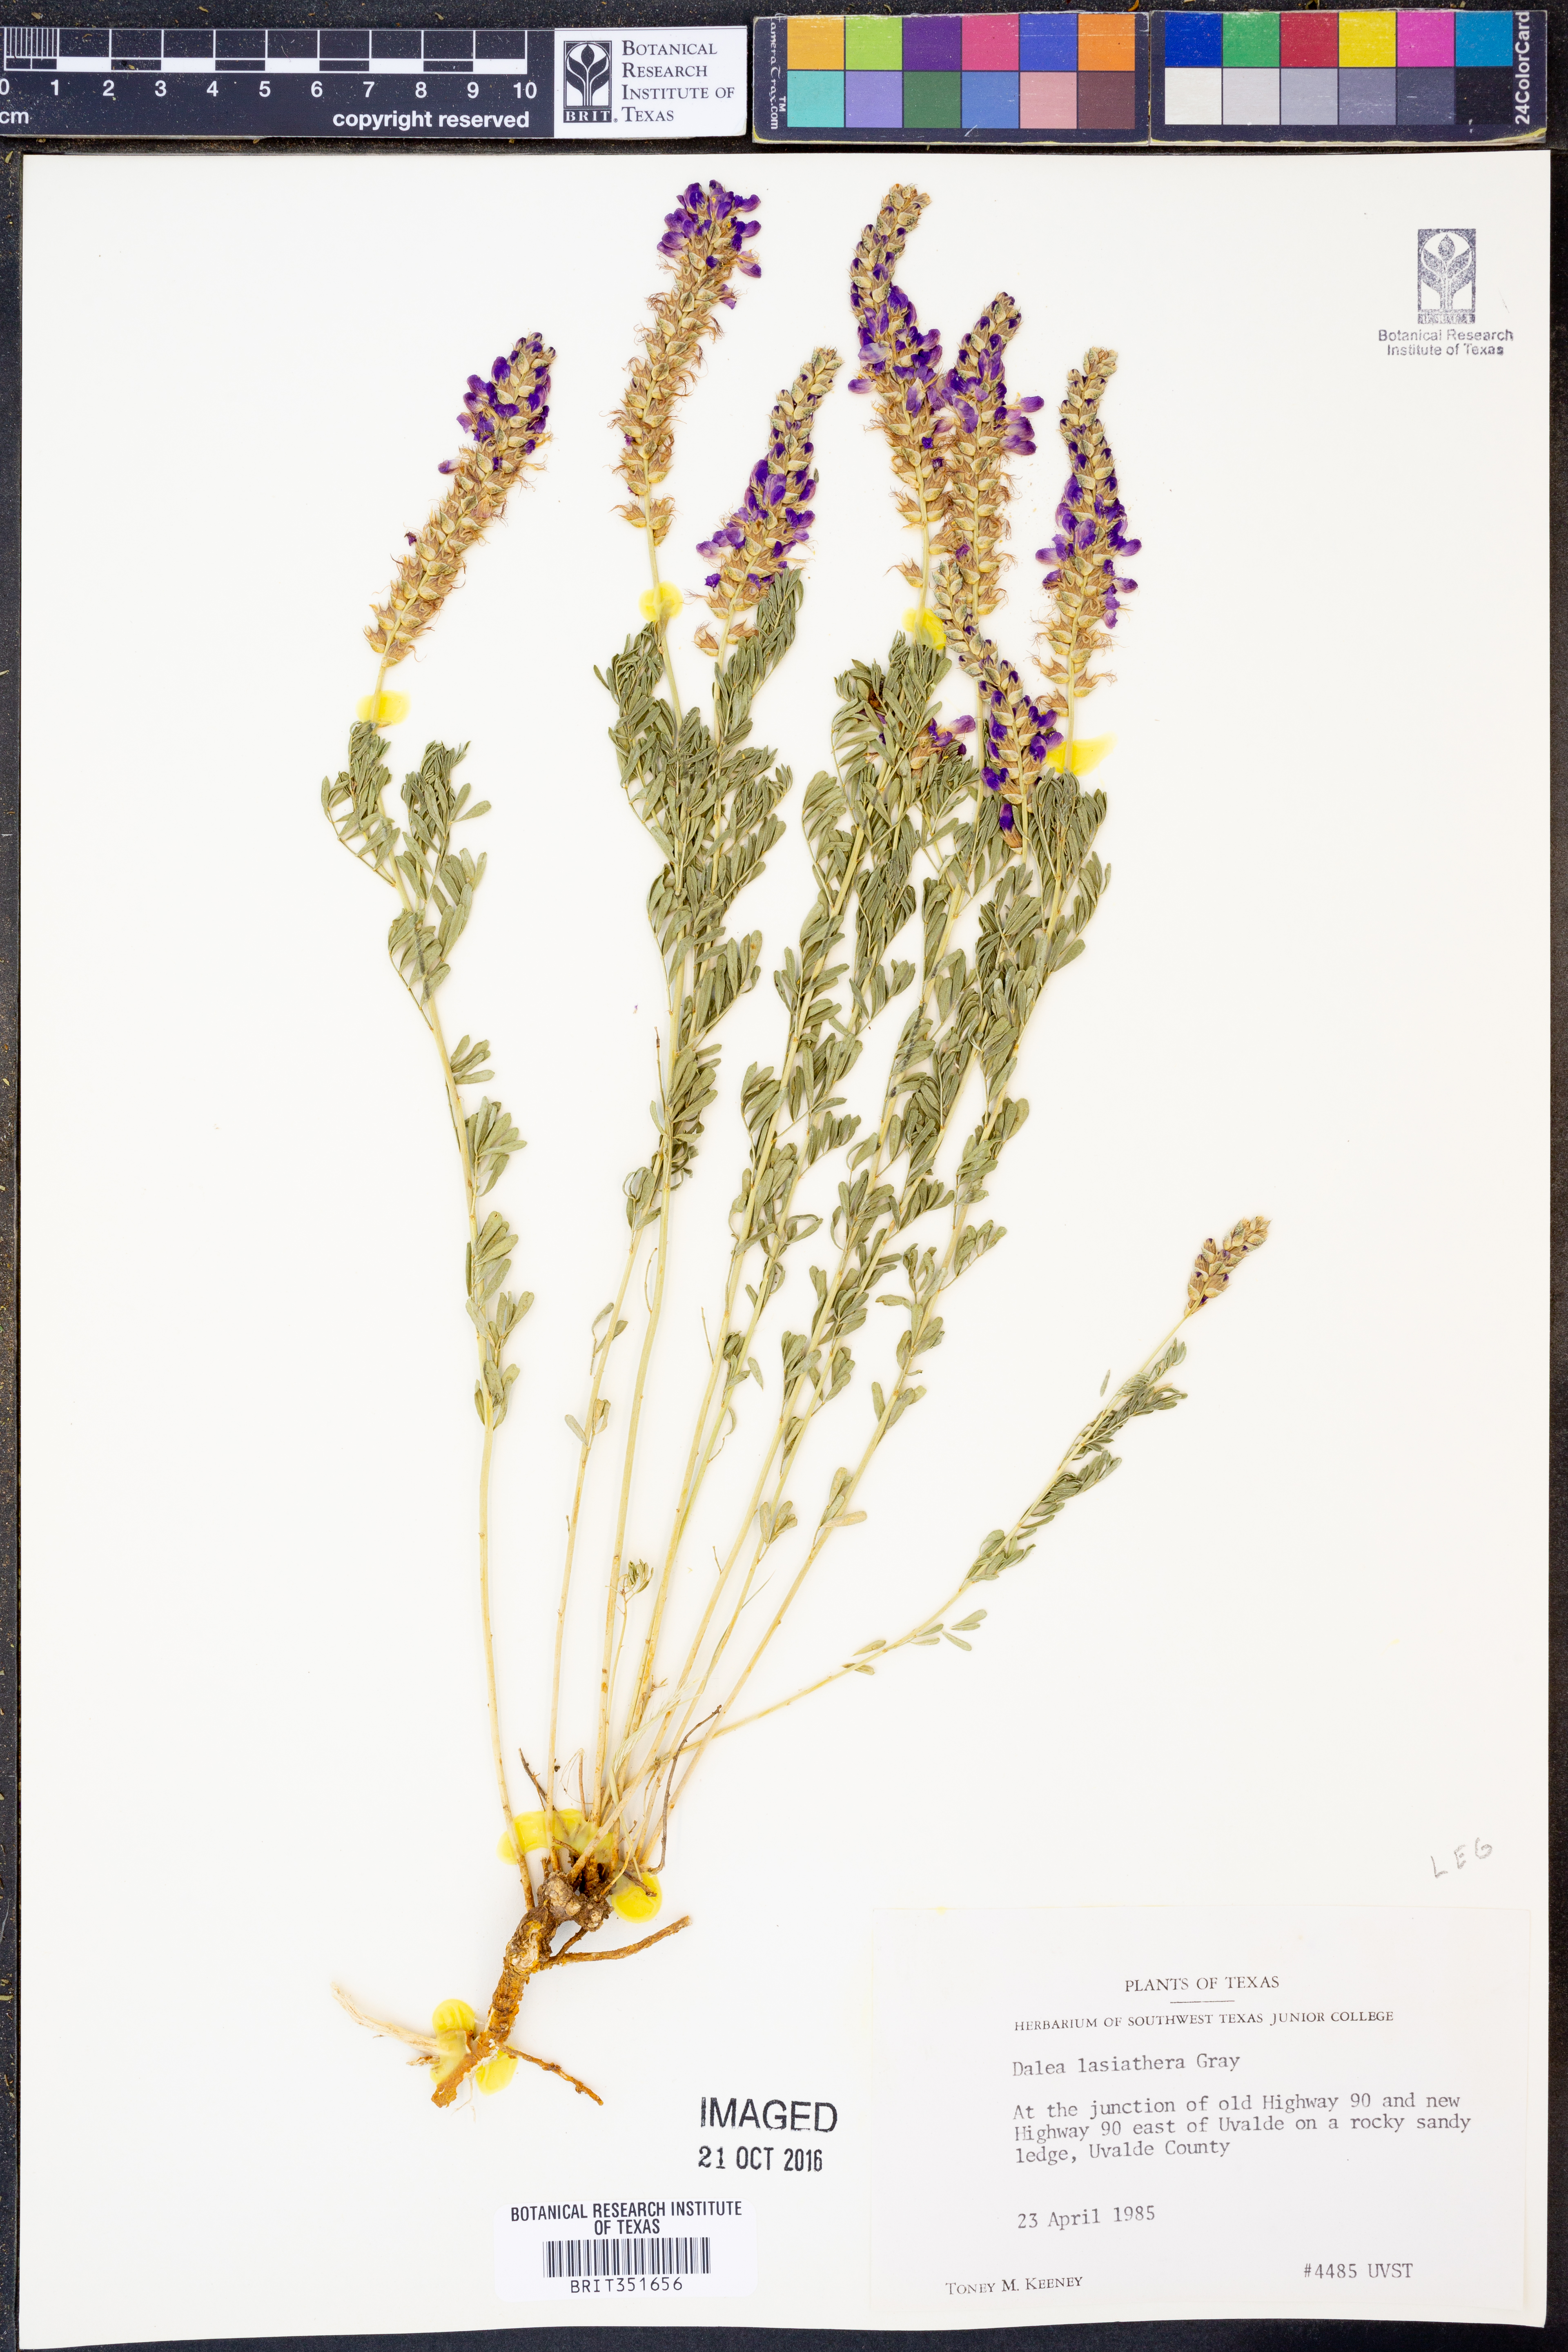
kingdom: Plantae
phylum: Tracheophyta
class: Magnoliopsida
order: Fabales
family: Fabaceae
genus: Dalea
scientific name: Dalea lasiathera
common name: Purple prairie-clover
